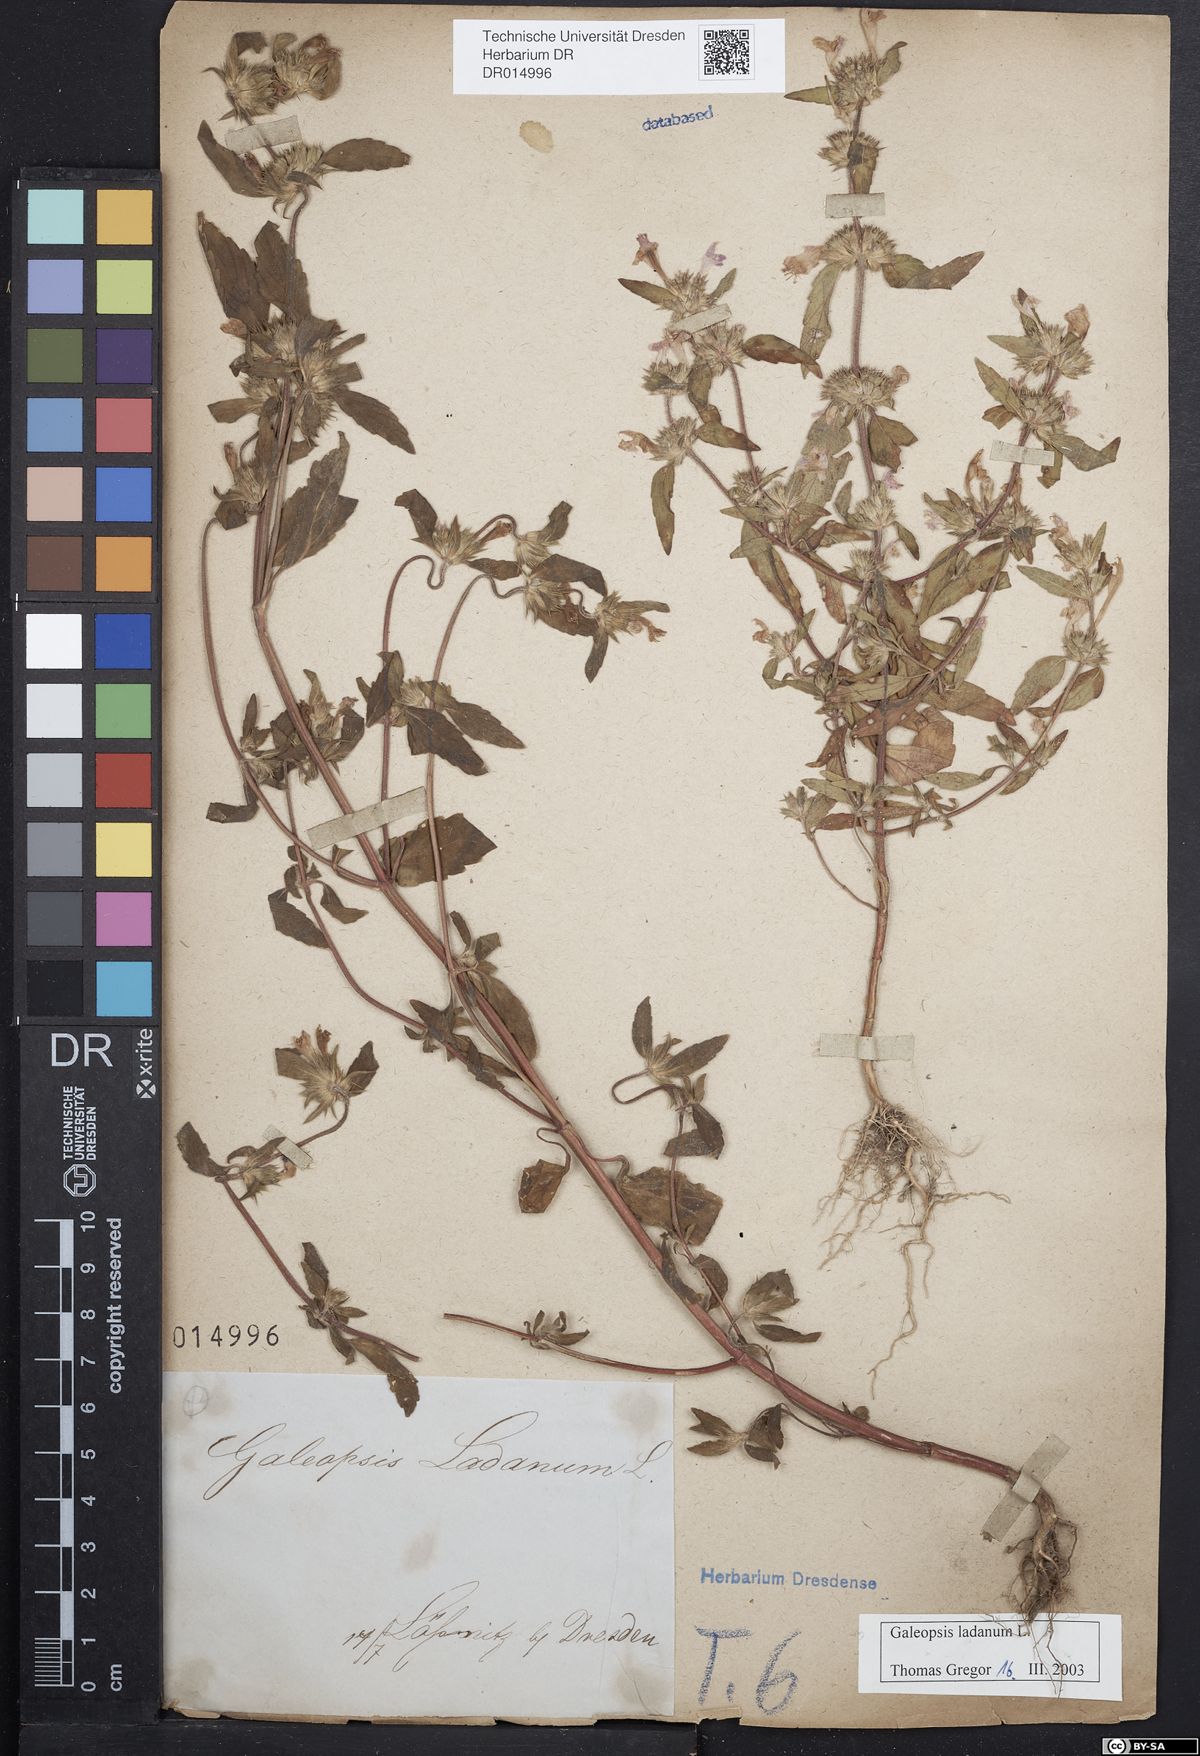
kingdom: Plantae
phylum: Tracheophyta
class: Magnoliopsida
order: Lamiales
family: Lamiaceae
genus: Galeopsis
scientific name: Galeopsis ladanum
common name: Broad-leaved hemp-nettle
